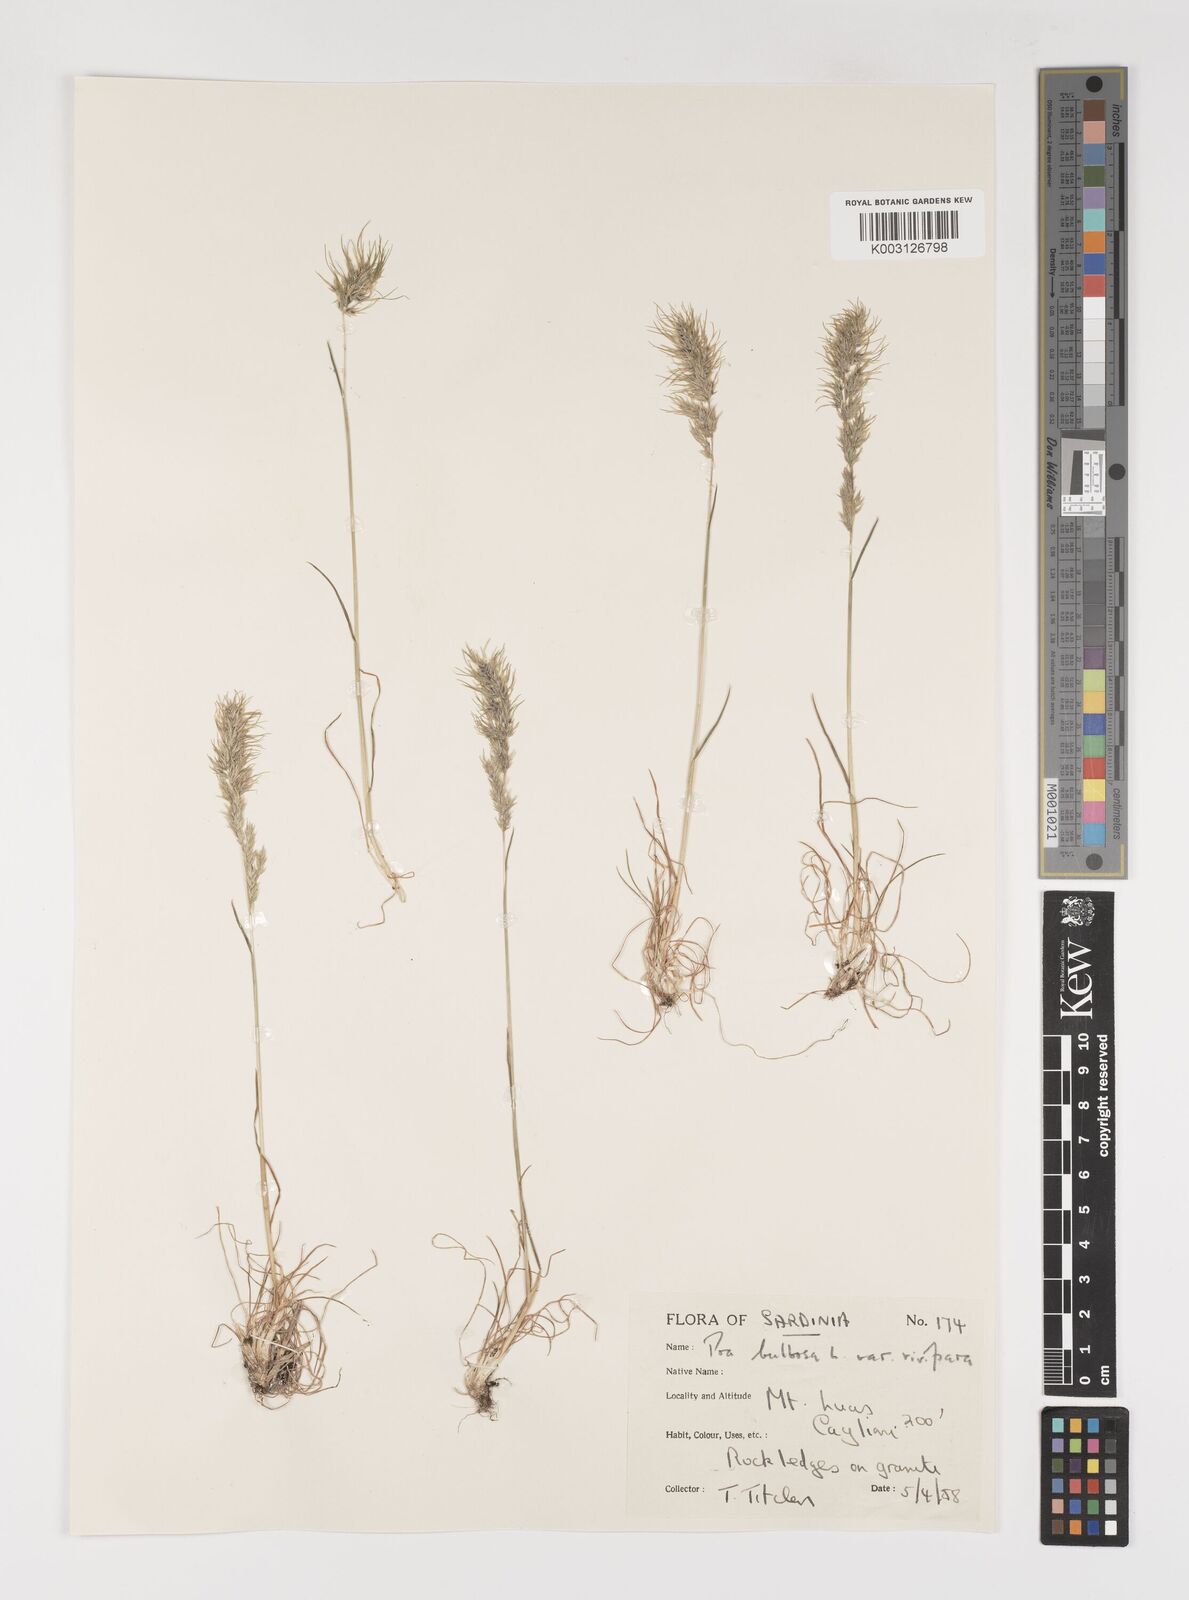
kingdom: Plantae
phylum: Tracheophyta
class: Liliopsida
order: Poales
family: Poaceae
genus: Poa
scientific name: Poa bulbosa
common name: Bulbous bluegrass
